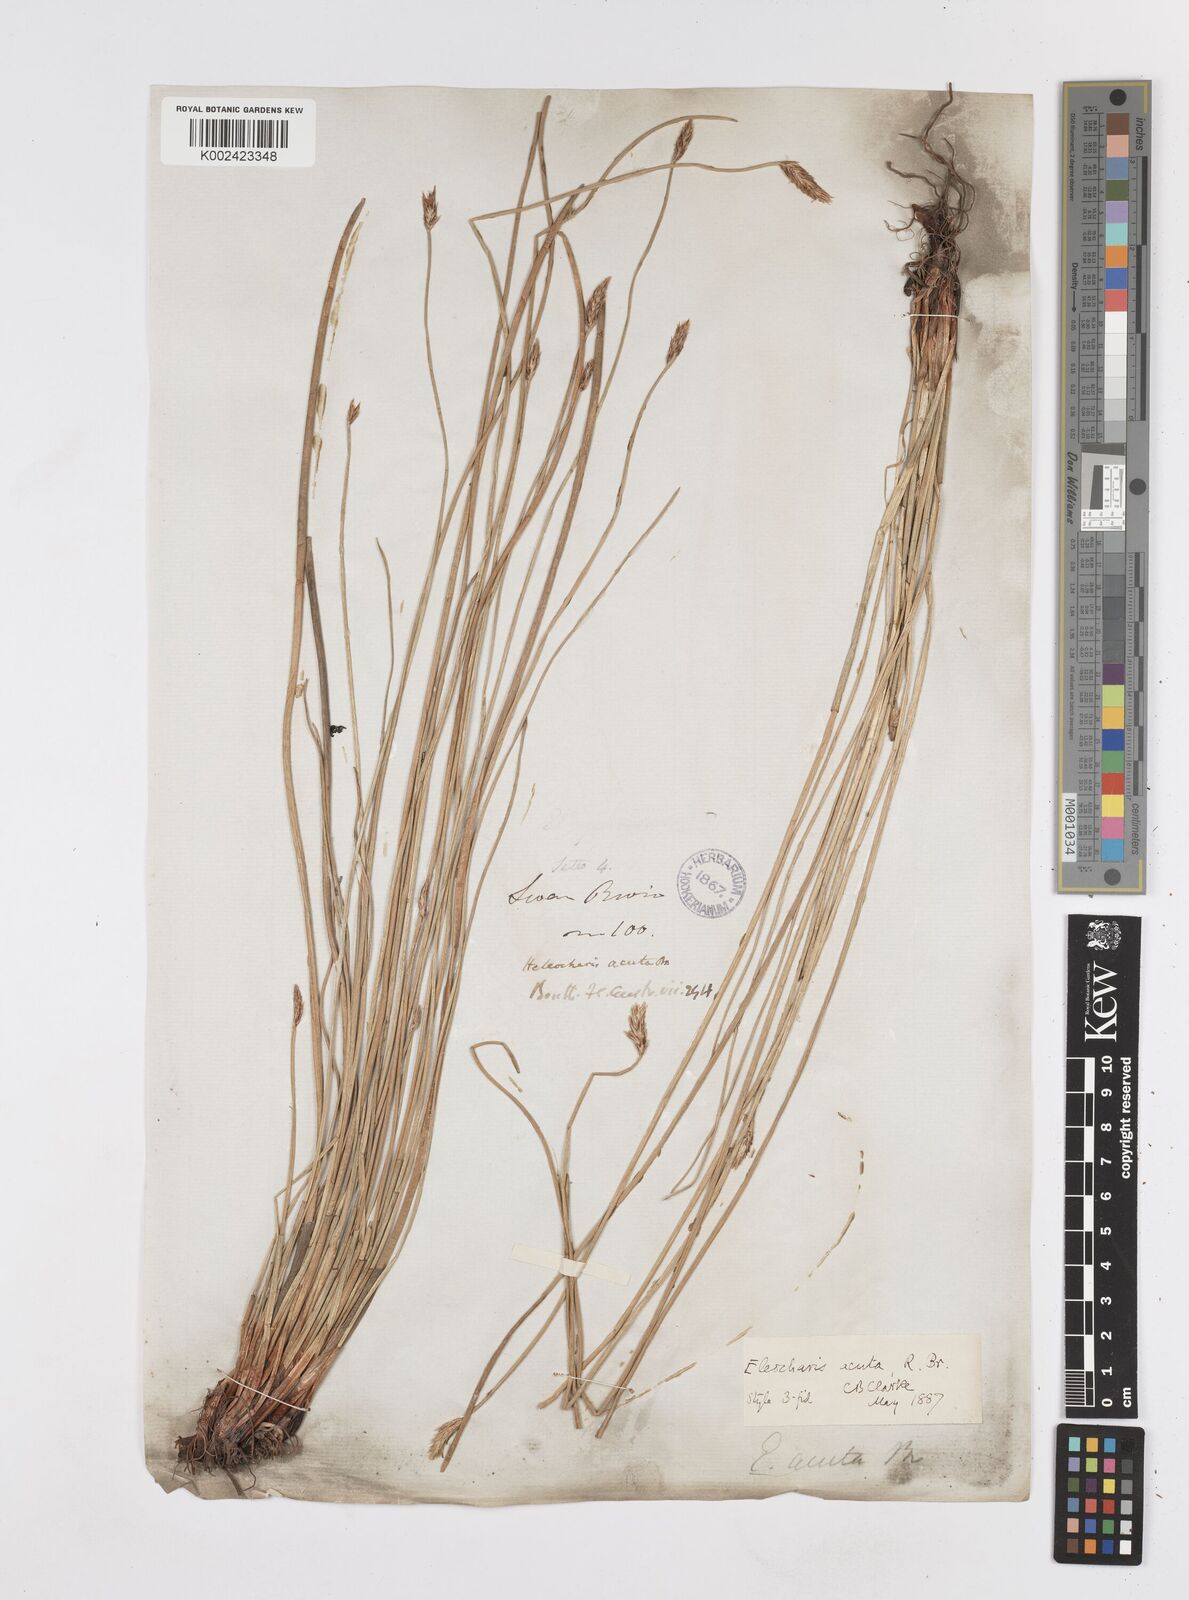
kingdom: Plantae
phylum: Tracheophyta
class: Liliopsida
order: Poales
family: Cyperaceae
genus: Eleocharis
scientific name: Eleocharis acuta
